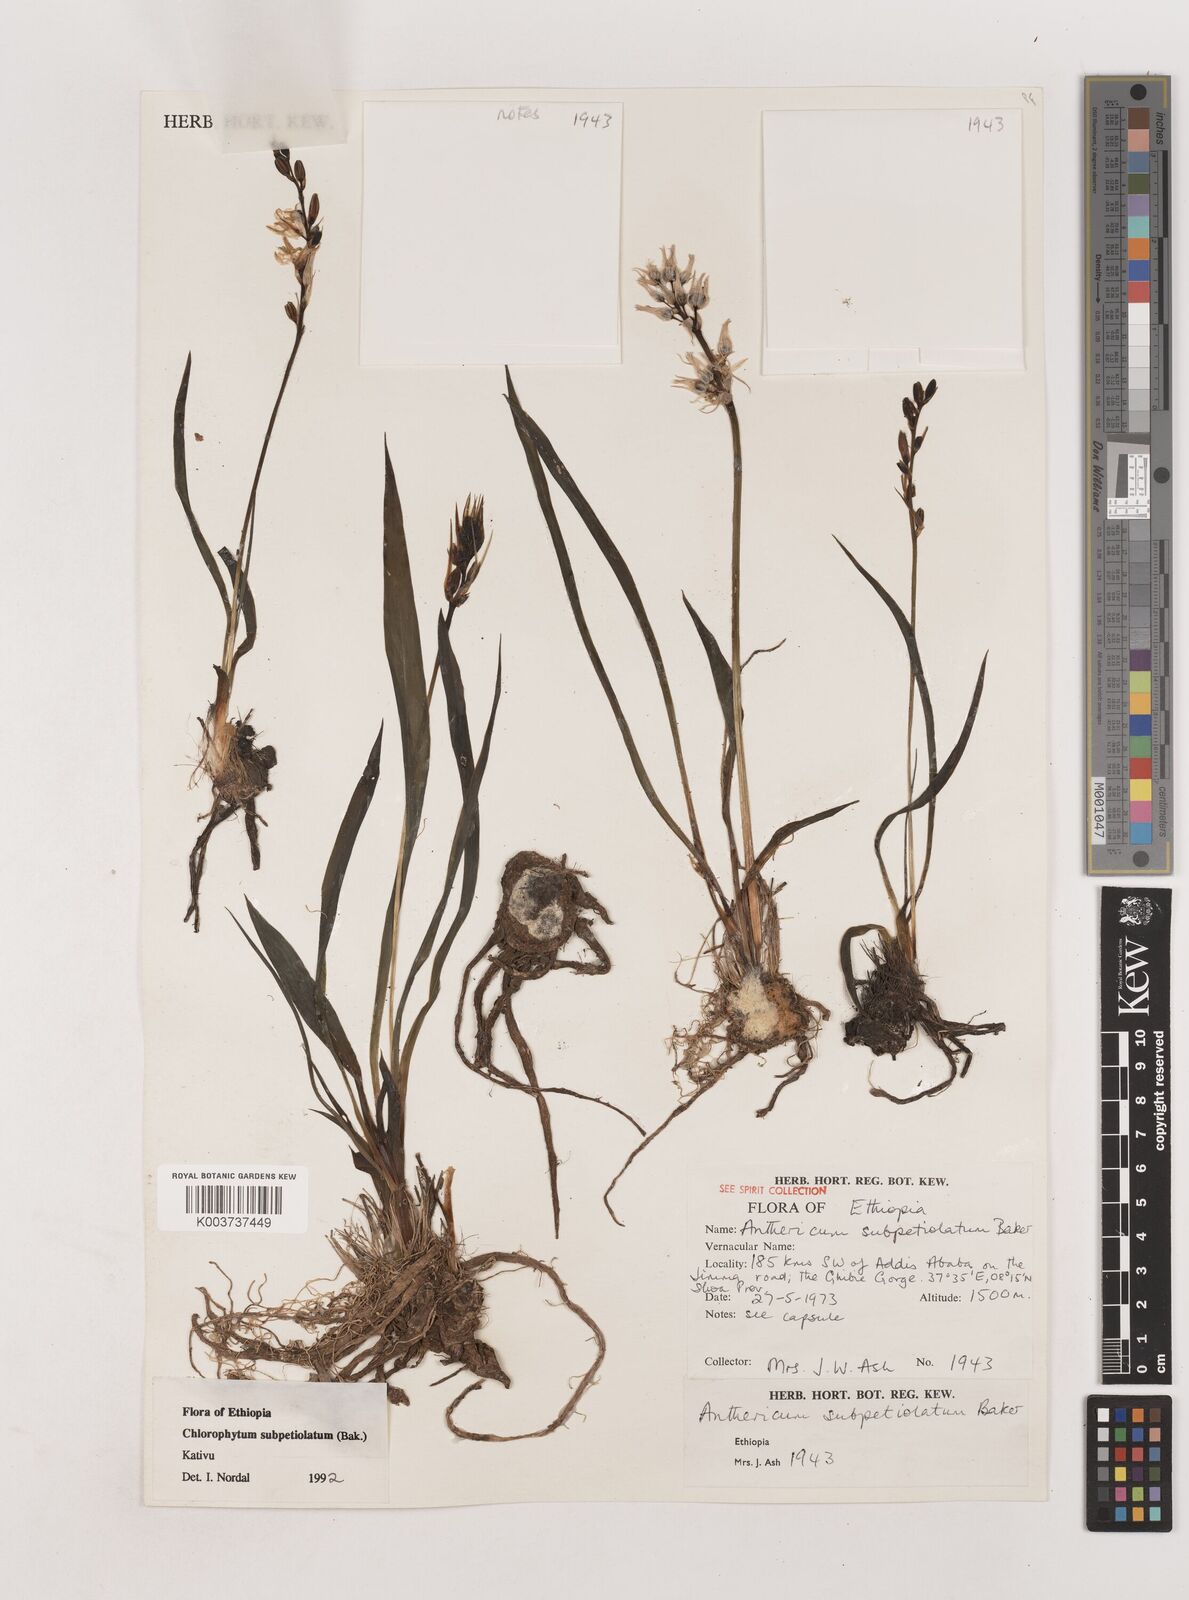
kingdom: Plantae
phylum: Tracheophyta
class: Liliopsida
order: Asparagales
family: Asparagaceae
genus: Chlorophytum
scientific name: Chlorophytum subpetiolatum
